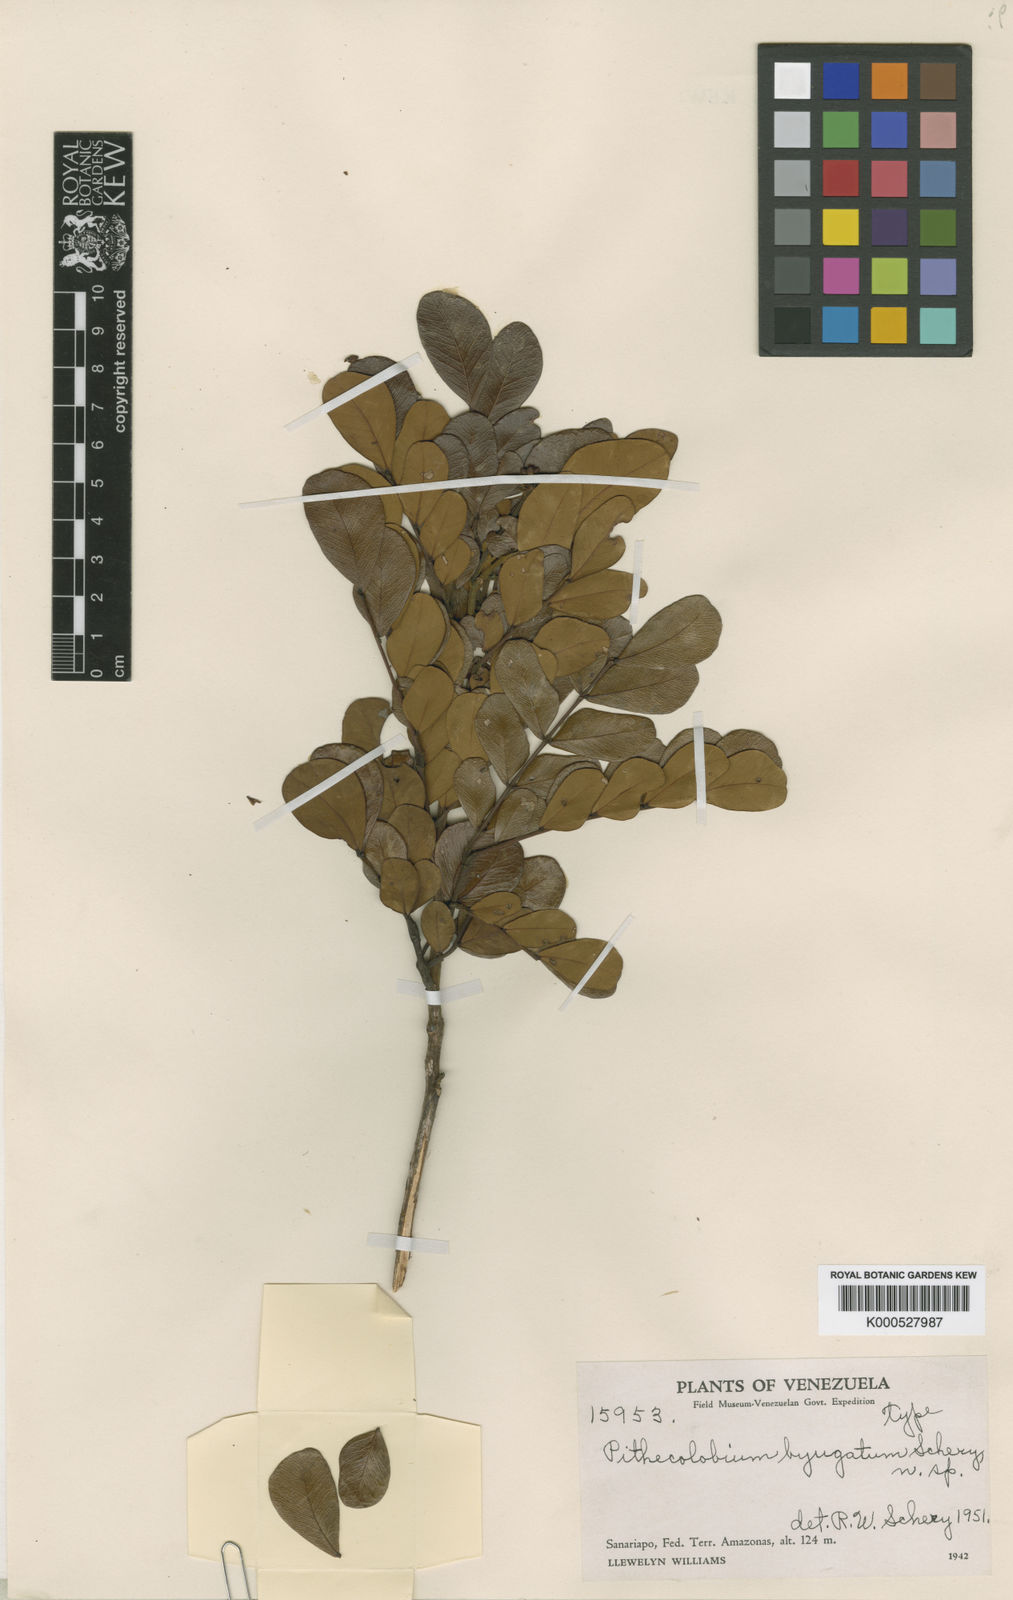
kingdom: Plantae
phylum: Tracheophyta
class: Magnoliopsida
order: Fabales
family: Fabaceae
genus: Albizia
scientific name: Albizia
